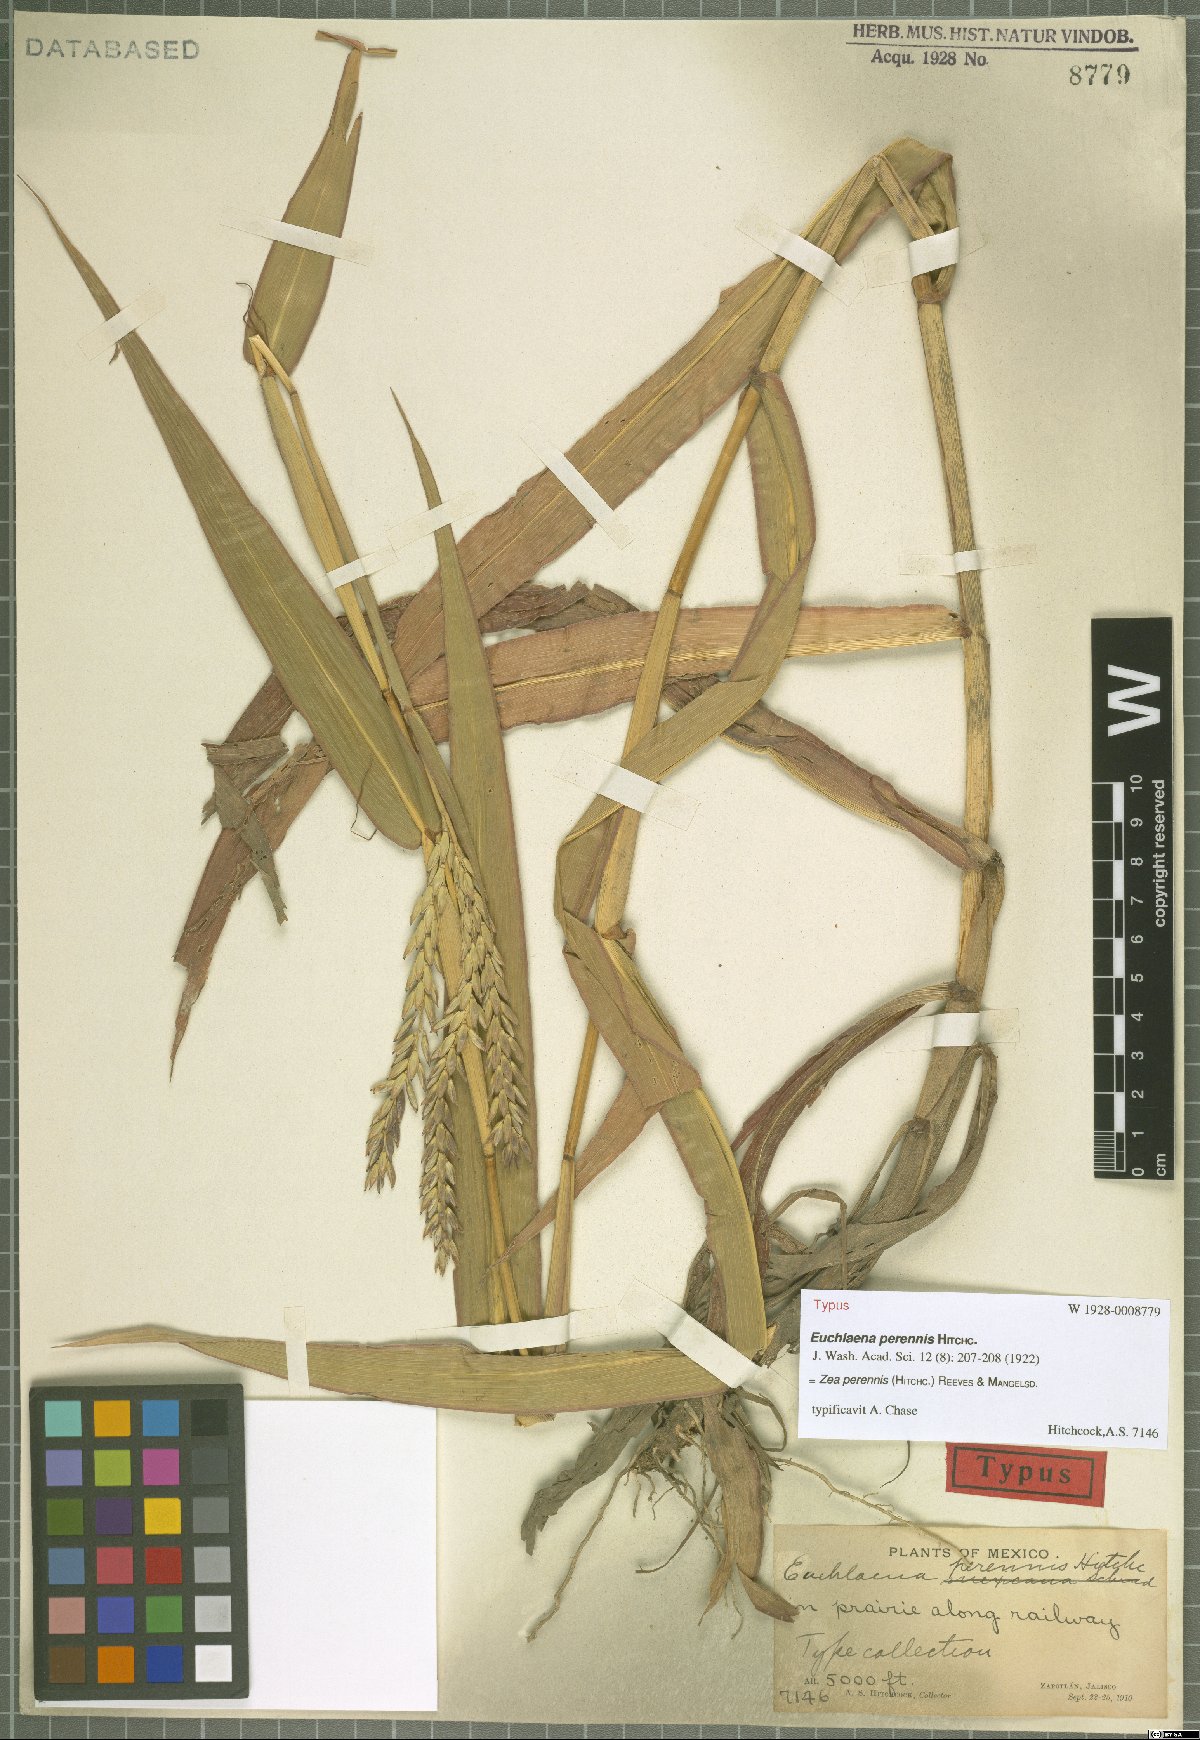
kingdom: Plantae
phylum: Tracheophyta
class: Liliopsida
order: Poales
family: Poaceae
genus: Zea
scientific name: Zea perennis
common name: Perennial teosinte
